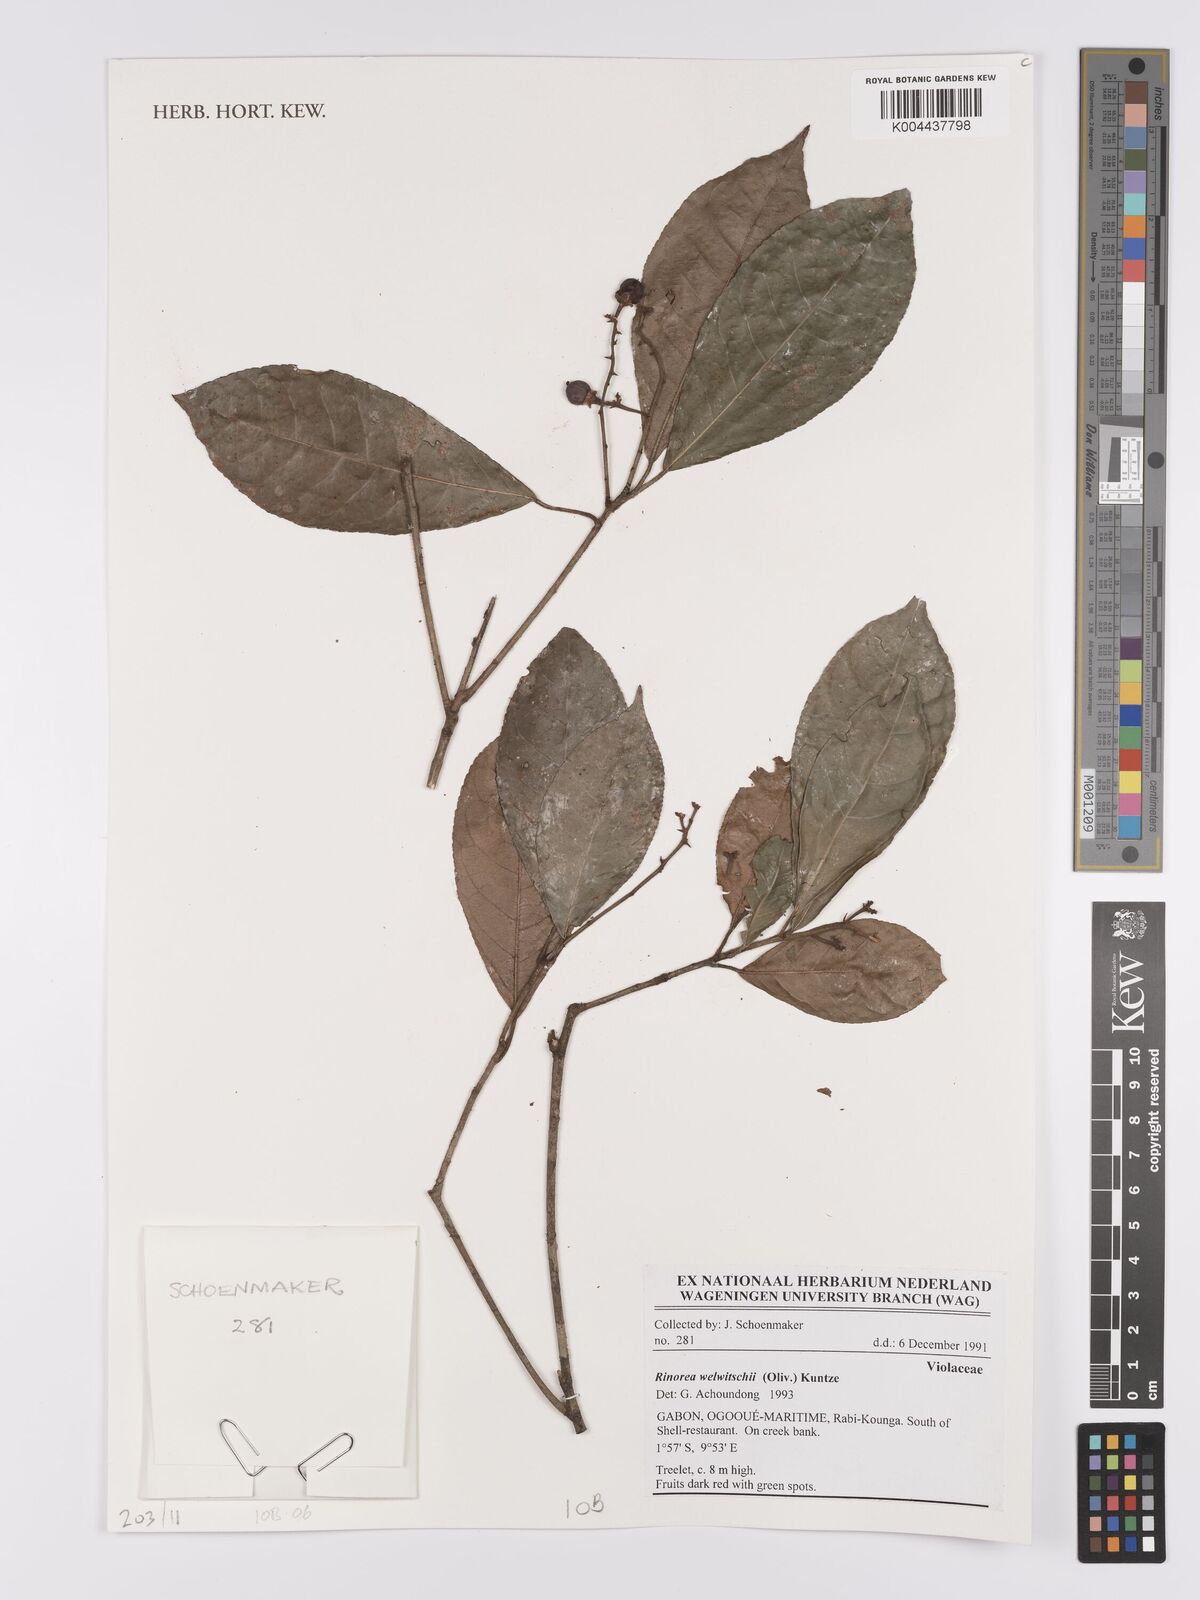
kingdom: Plantae
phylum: Tracheophyta
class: Magnoliopsida
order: Malpighiales
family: Violaceae
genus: Rinorea
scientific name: Rinorea welwitschii
